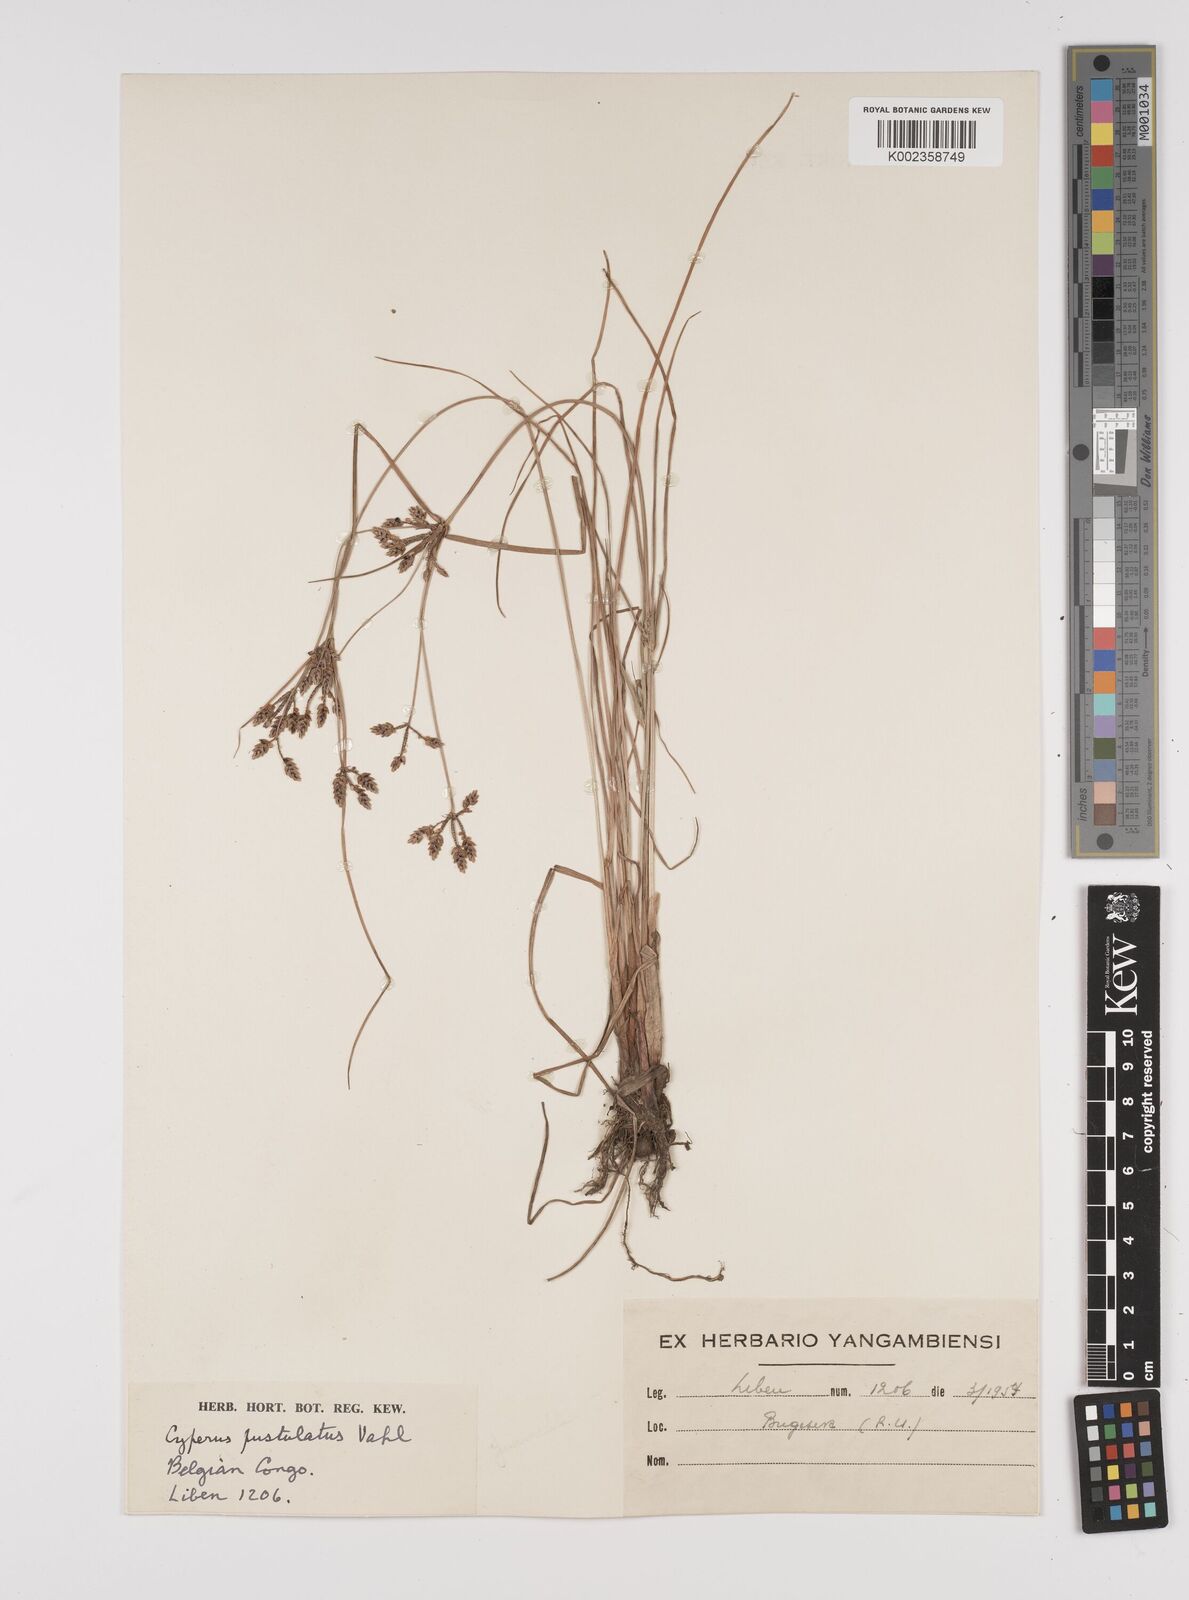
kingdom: Plantae
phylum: Tracheophyta
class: Liliopsida
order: Poales
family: Cyperaceae
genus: Cyperus
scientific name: Cyperus pustulatus
